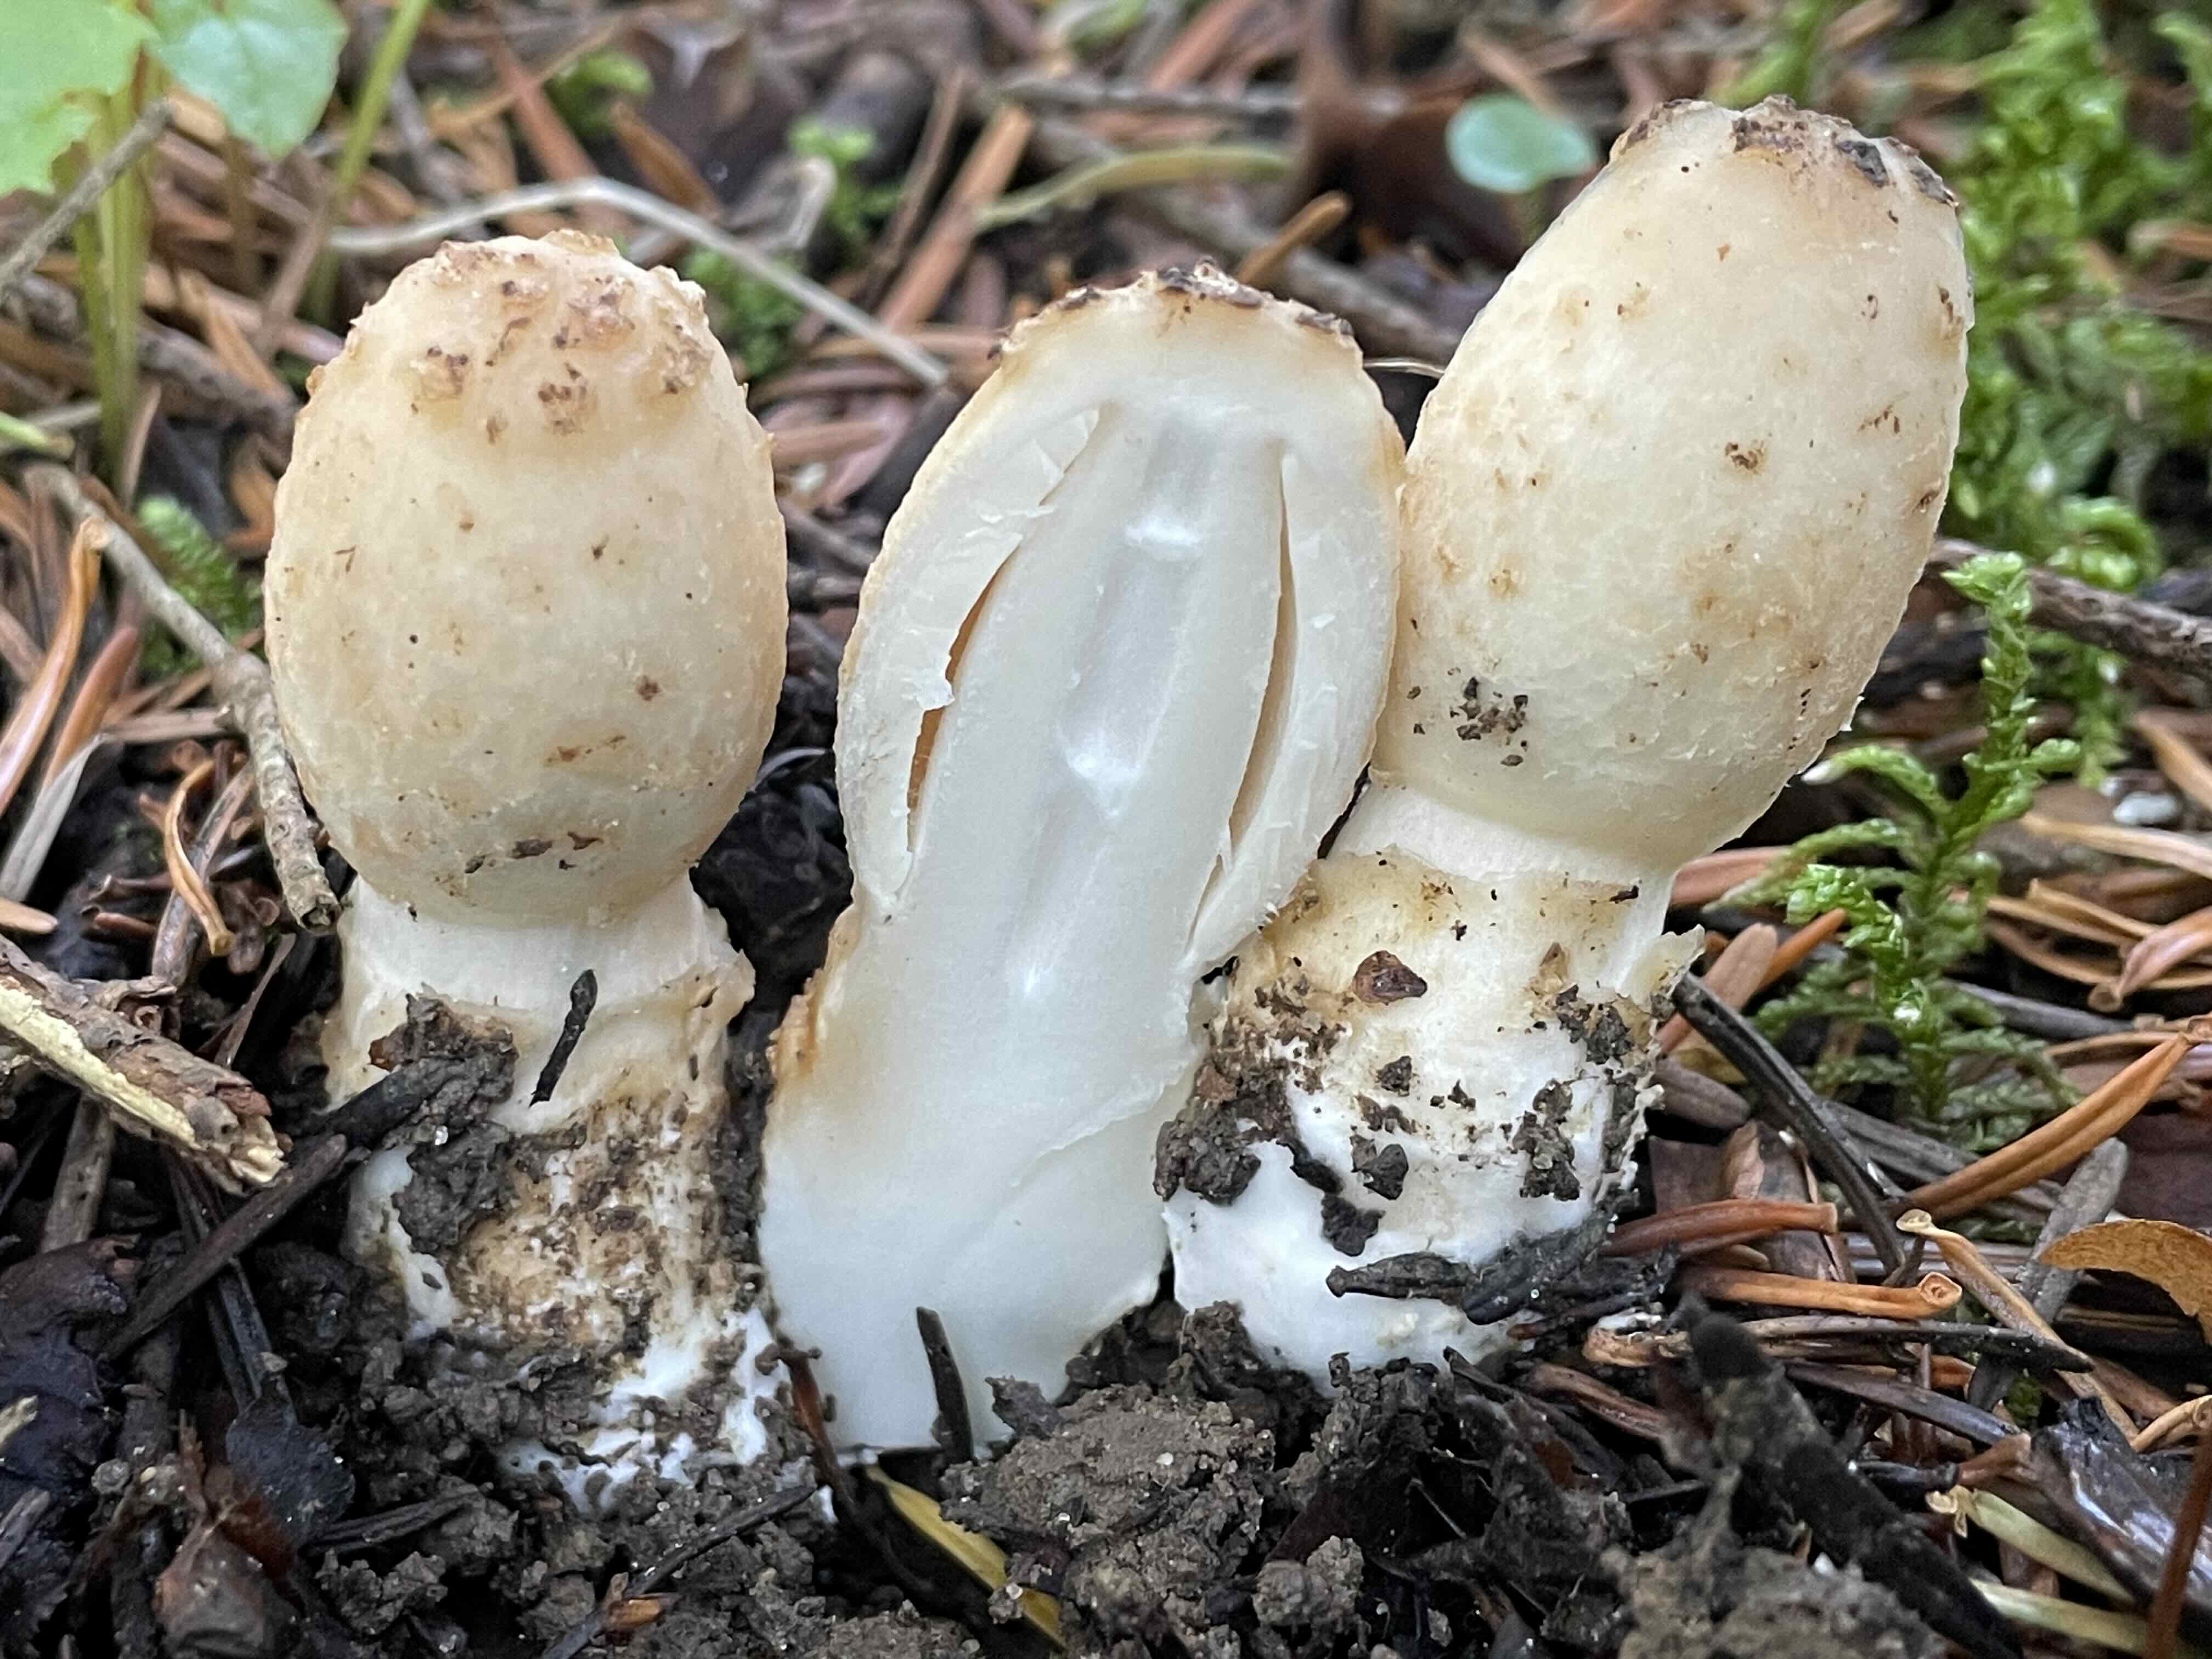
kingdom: Fungi
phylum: Basidiomycota
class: Agaricomycetes
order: Agaricales
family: Agaricaceae
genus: Coprinus
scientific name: Coprinus comatus
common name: stor parykhat
